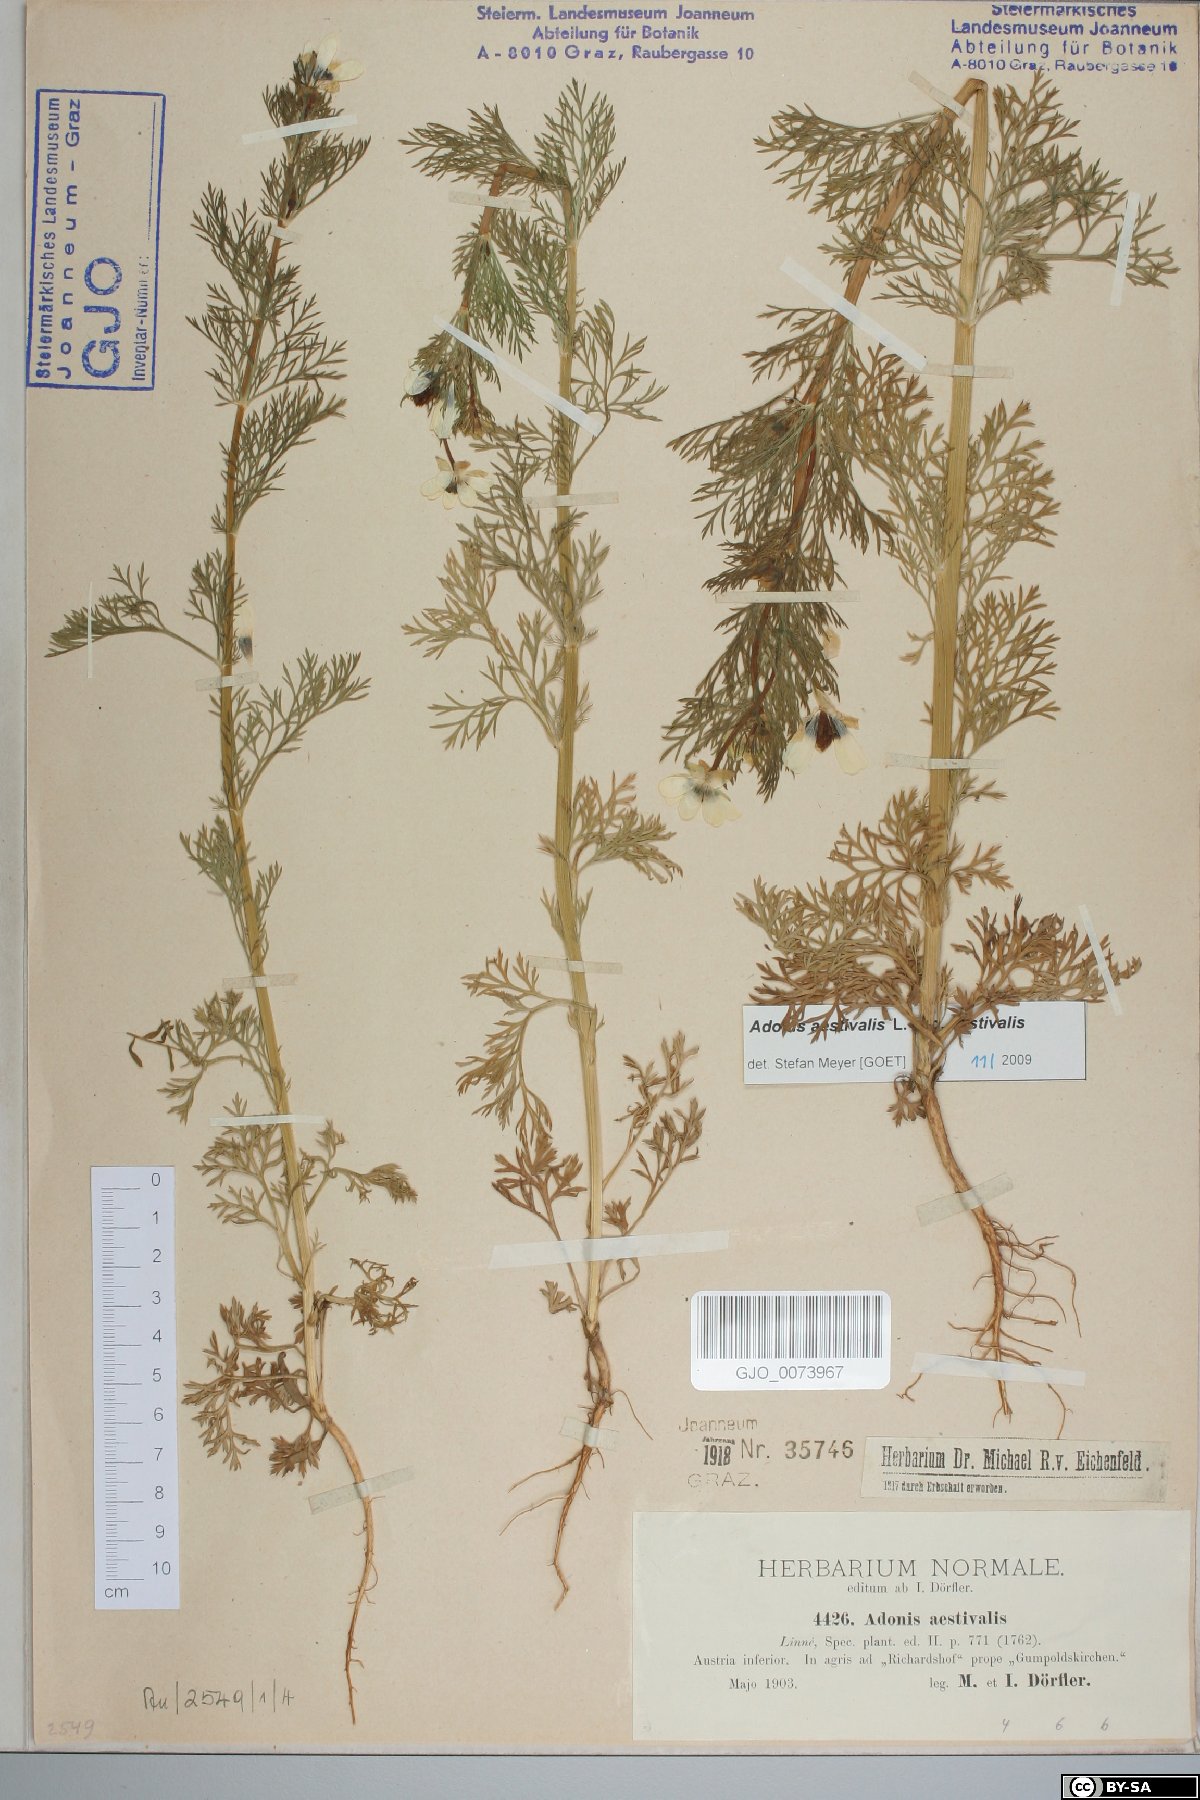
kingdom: Plantae
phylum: Tracheophyta
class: Magnoliopsida
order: Ranunculales
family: Ranunculaceae
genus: Adonis
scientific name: Adonis aestivalis
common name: Summer pheasant's-eye
